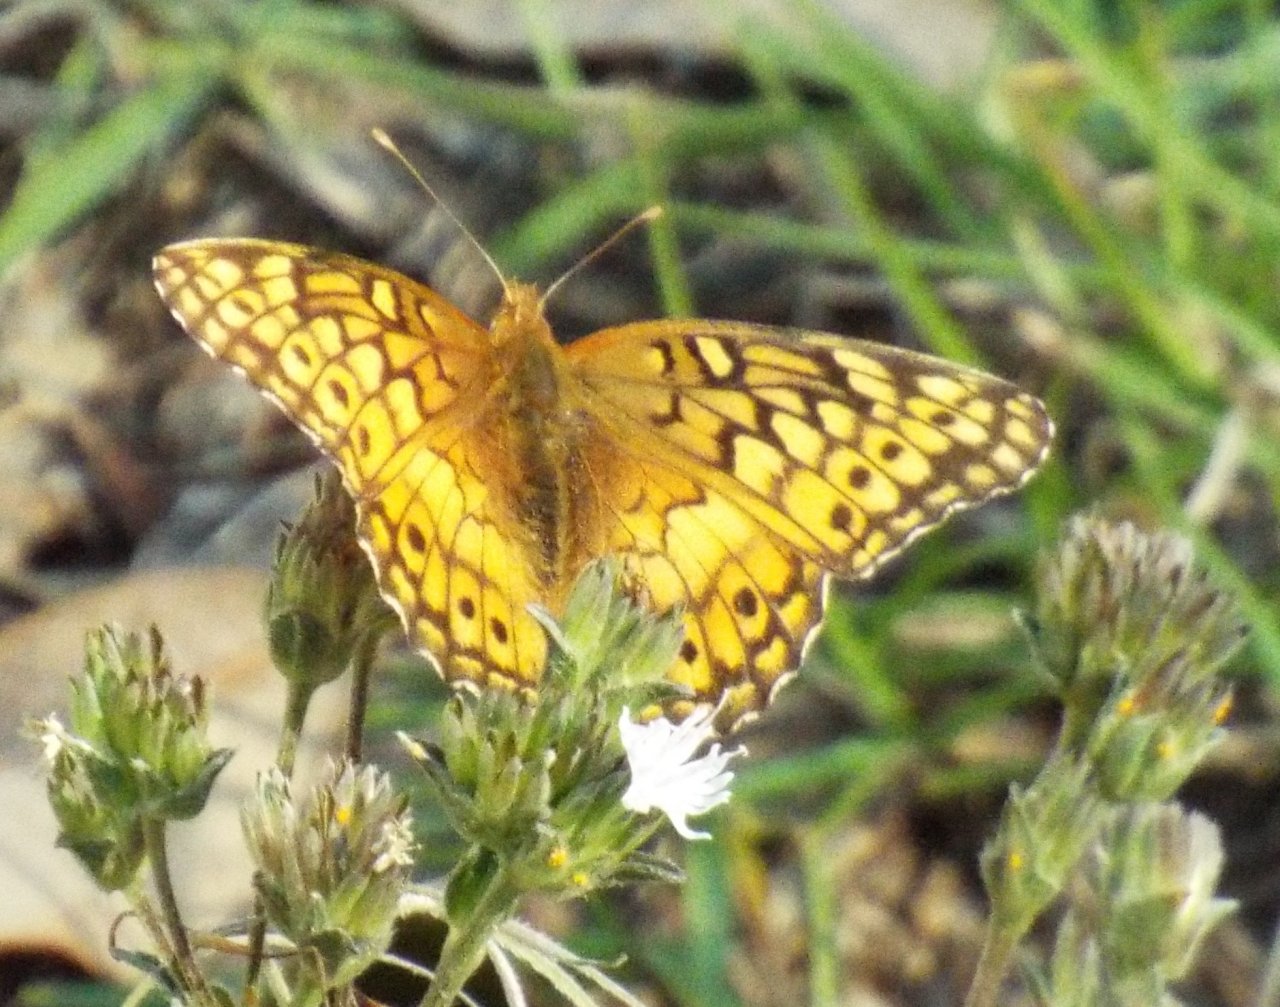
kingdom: Animalia
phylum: Arthropoda
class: Insecta
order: Lepidoptera
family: Nymphalidae
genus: Euptoieta
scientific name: Euptoieta claudia
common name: Variegated Fritillary
